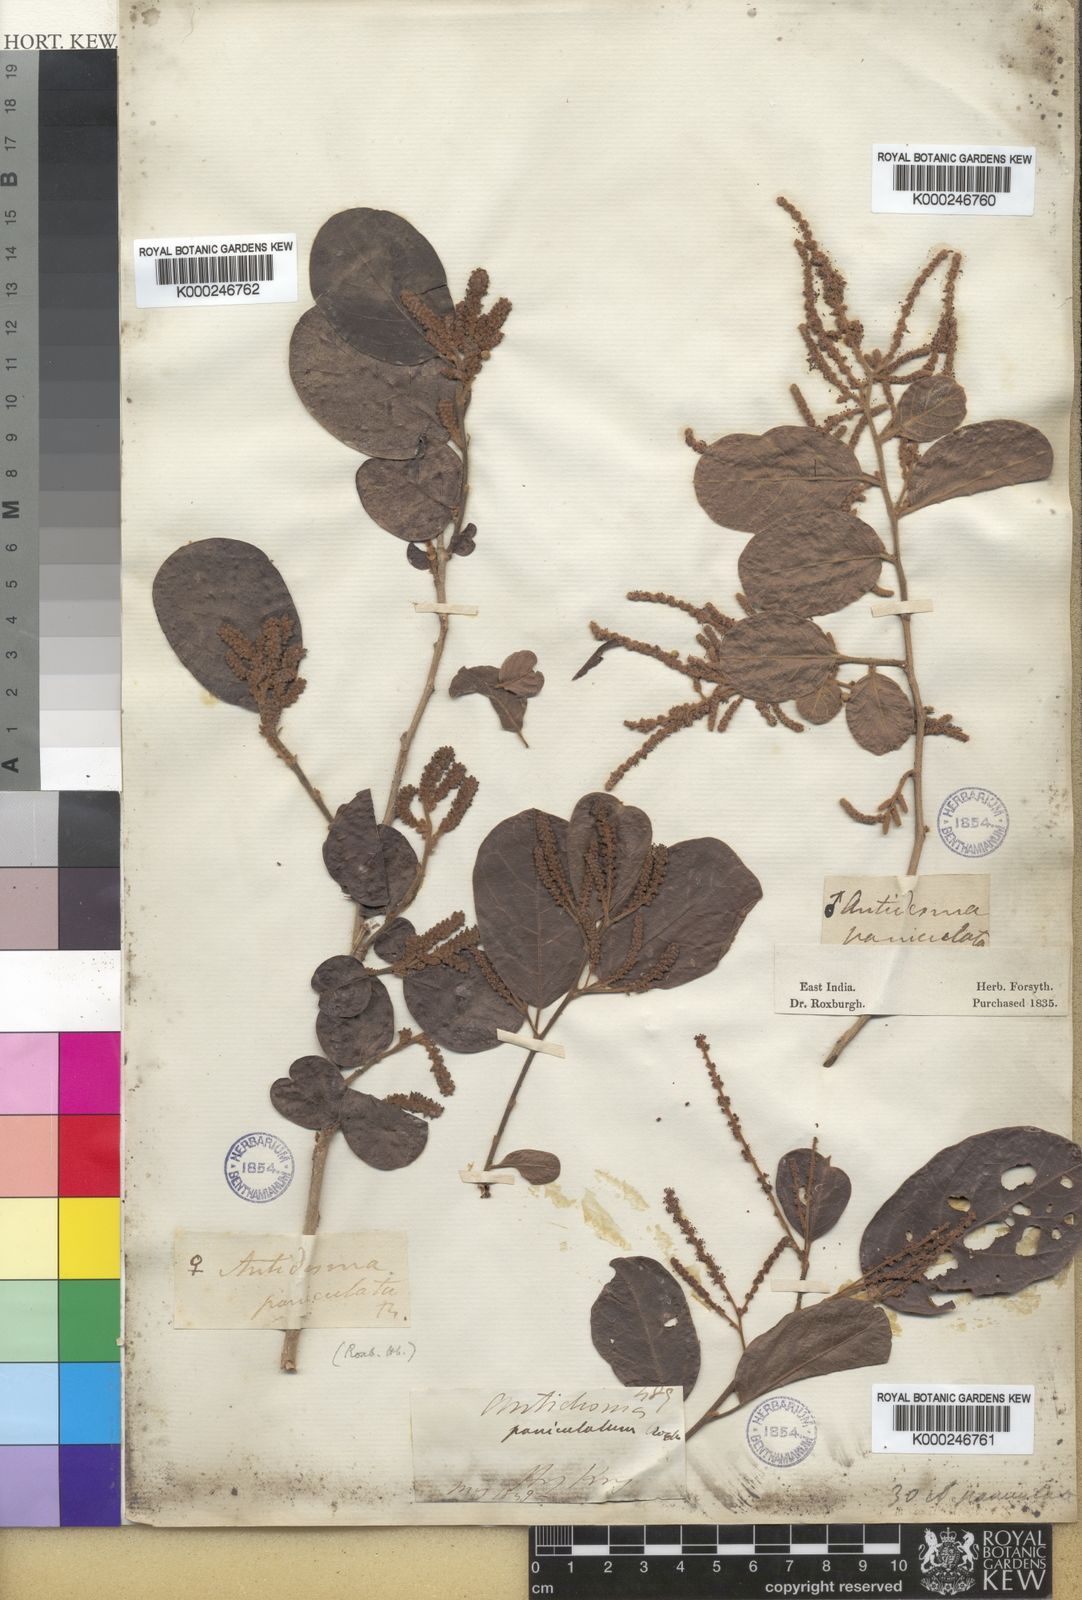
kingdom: Plantae
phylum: Tracheophyta
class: Magnoliopsida
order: Malpighiales
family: Phyllanthaceae
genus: Antidesma
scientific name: Antidesma ghaesembilla
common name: Black currant-tree
